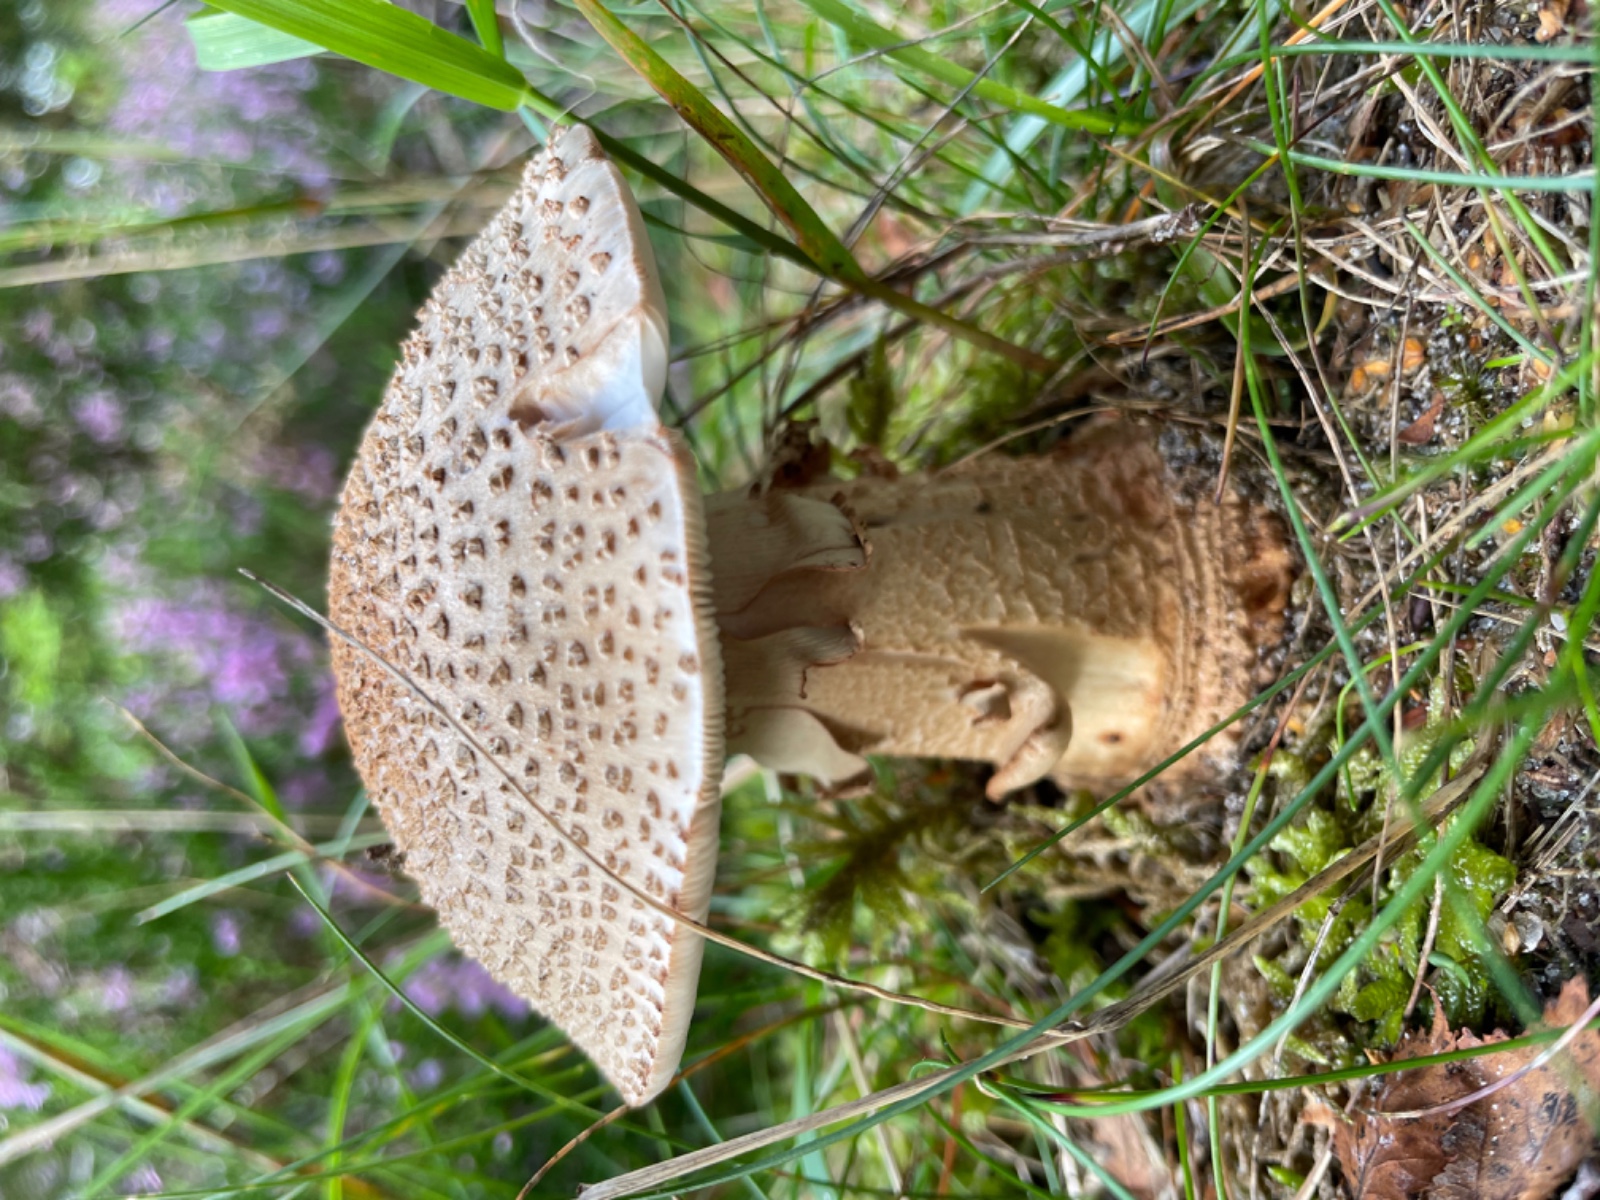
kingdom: Fungi
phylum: Basidiomycota
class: Agaricomycetes
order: Agaricales
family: Amanitaceae
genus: Amanita
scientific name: Amanita rubescens
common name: rødmende fluesvamp
